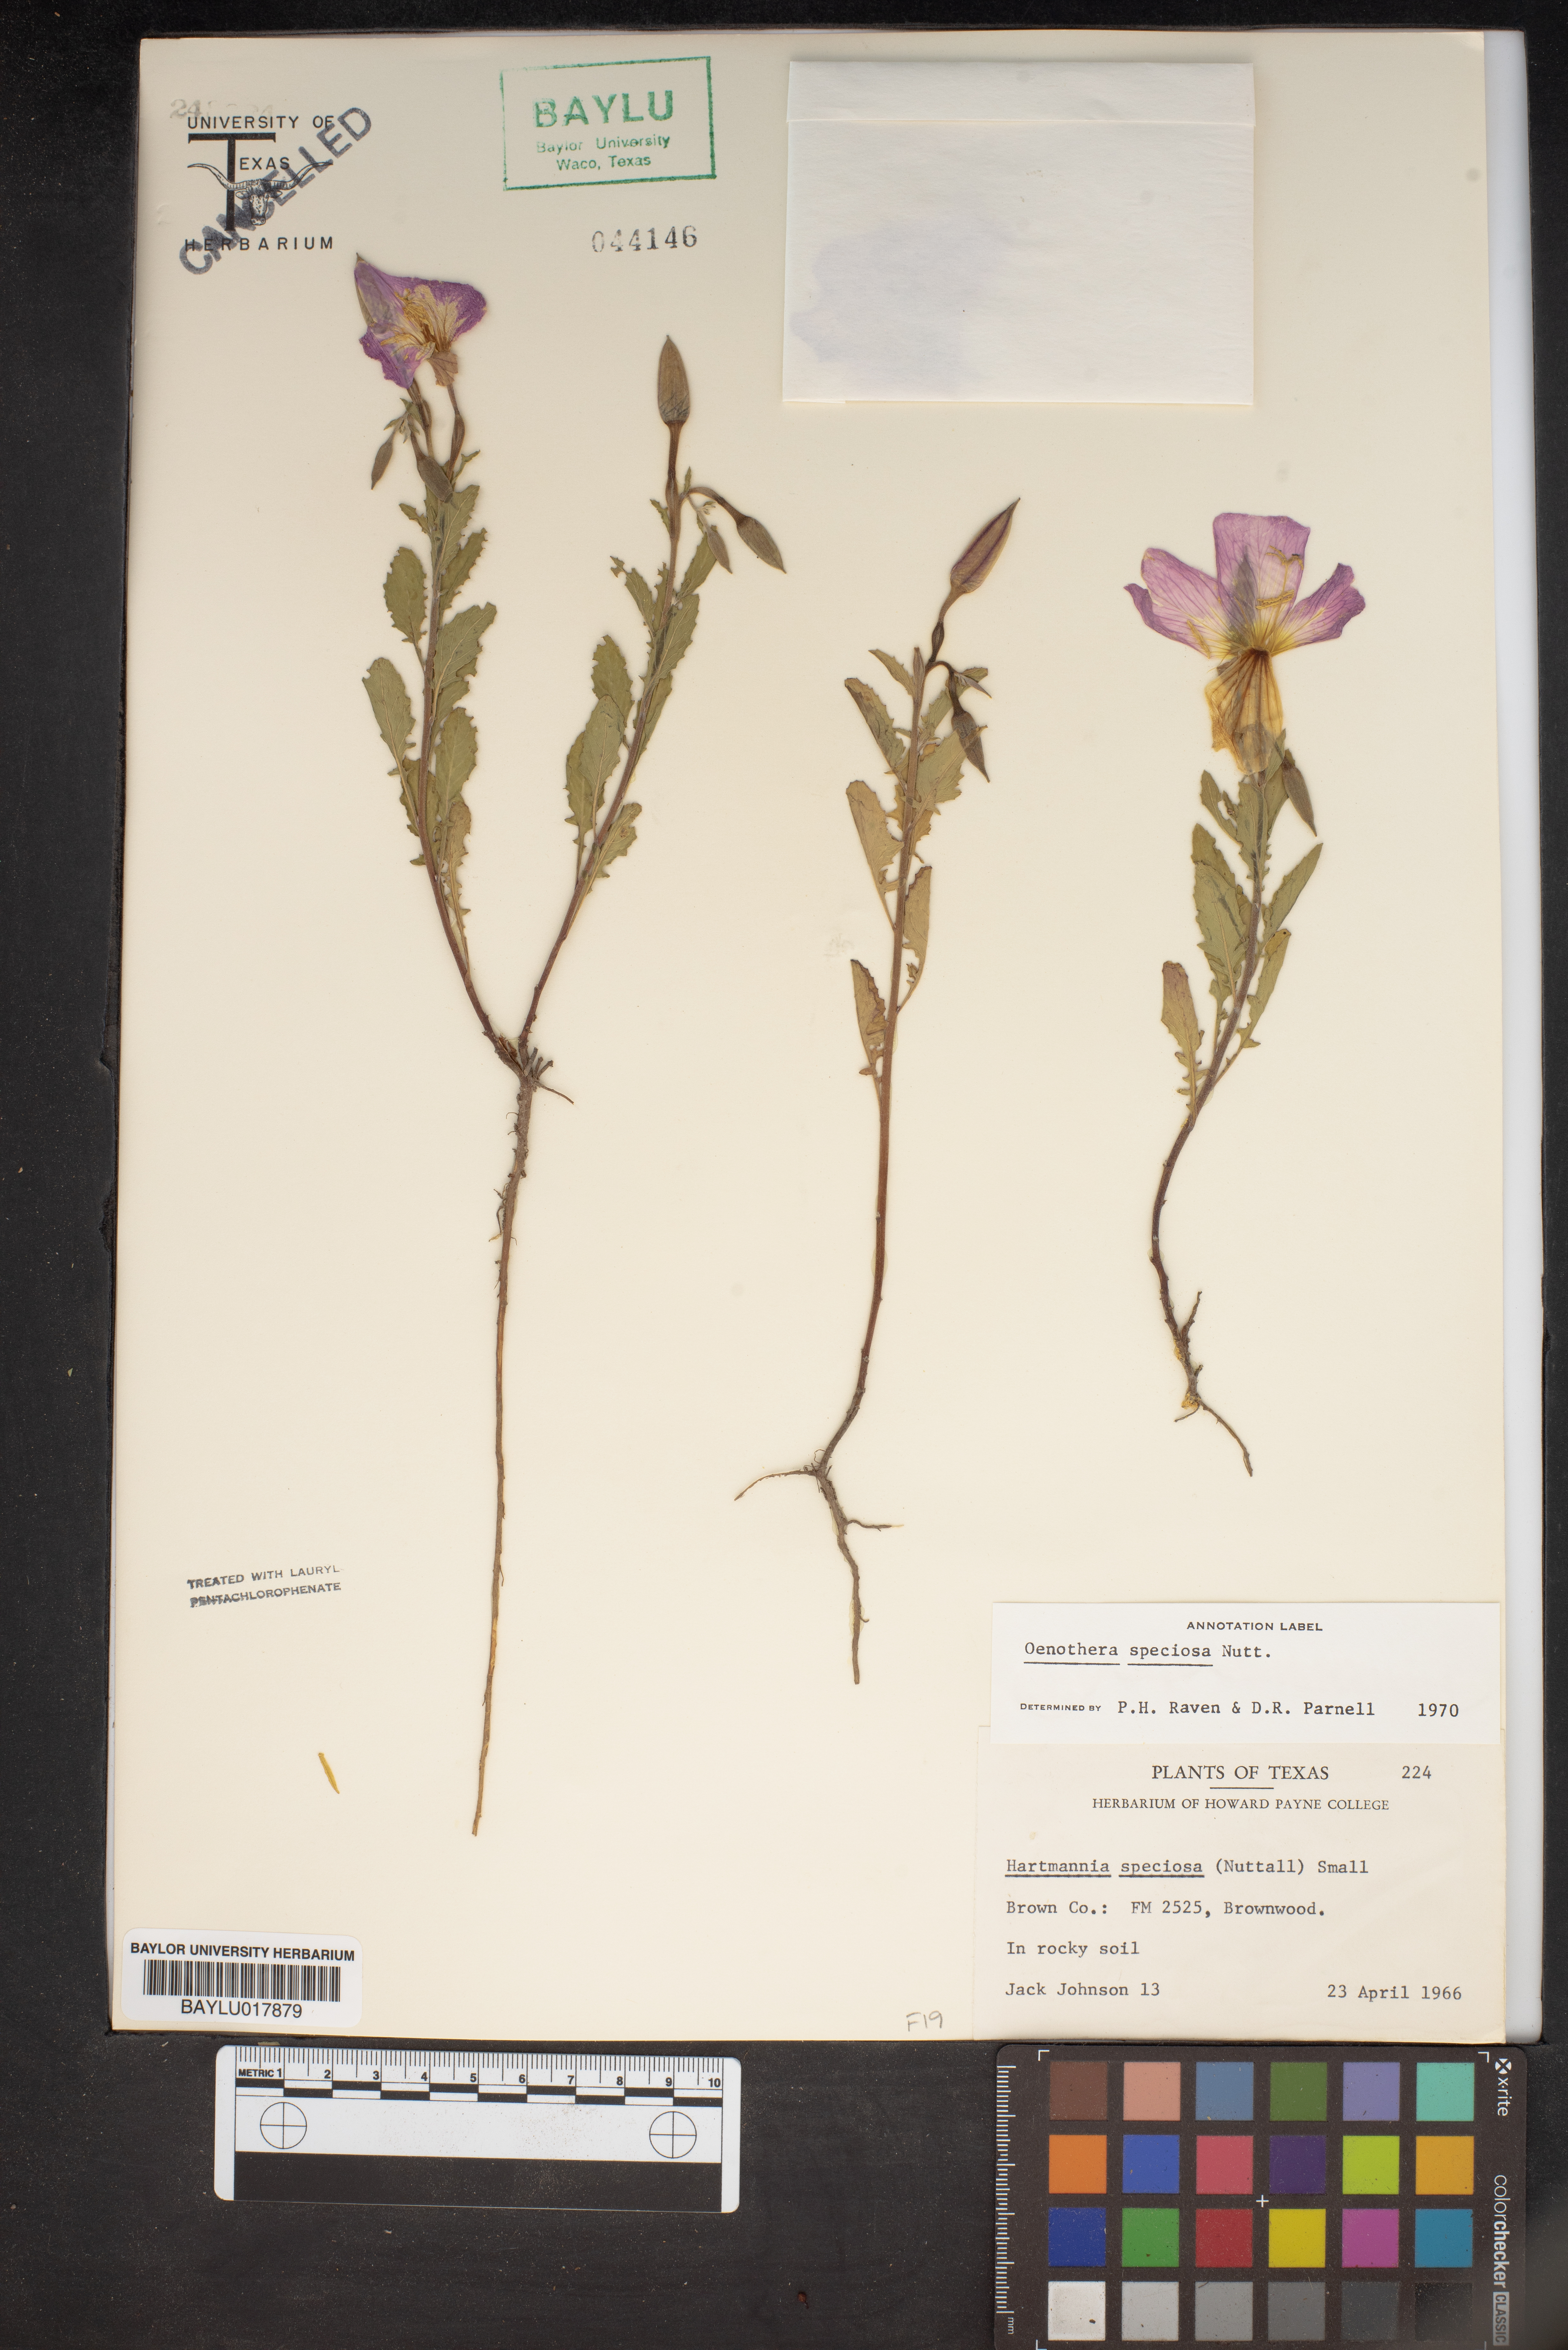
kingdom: Plantae
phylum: Tracheophyta
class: Magnoliopsida
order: Myrtales
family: Onagraceae
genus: Oenothera
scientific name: Oenothera speciosa
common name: White evening-primrose
